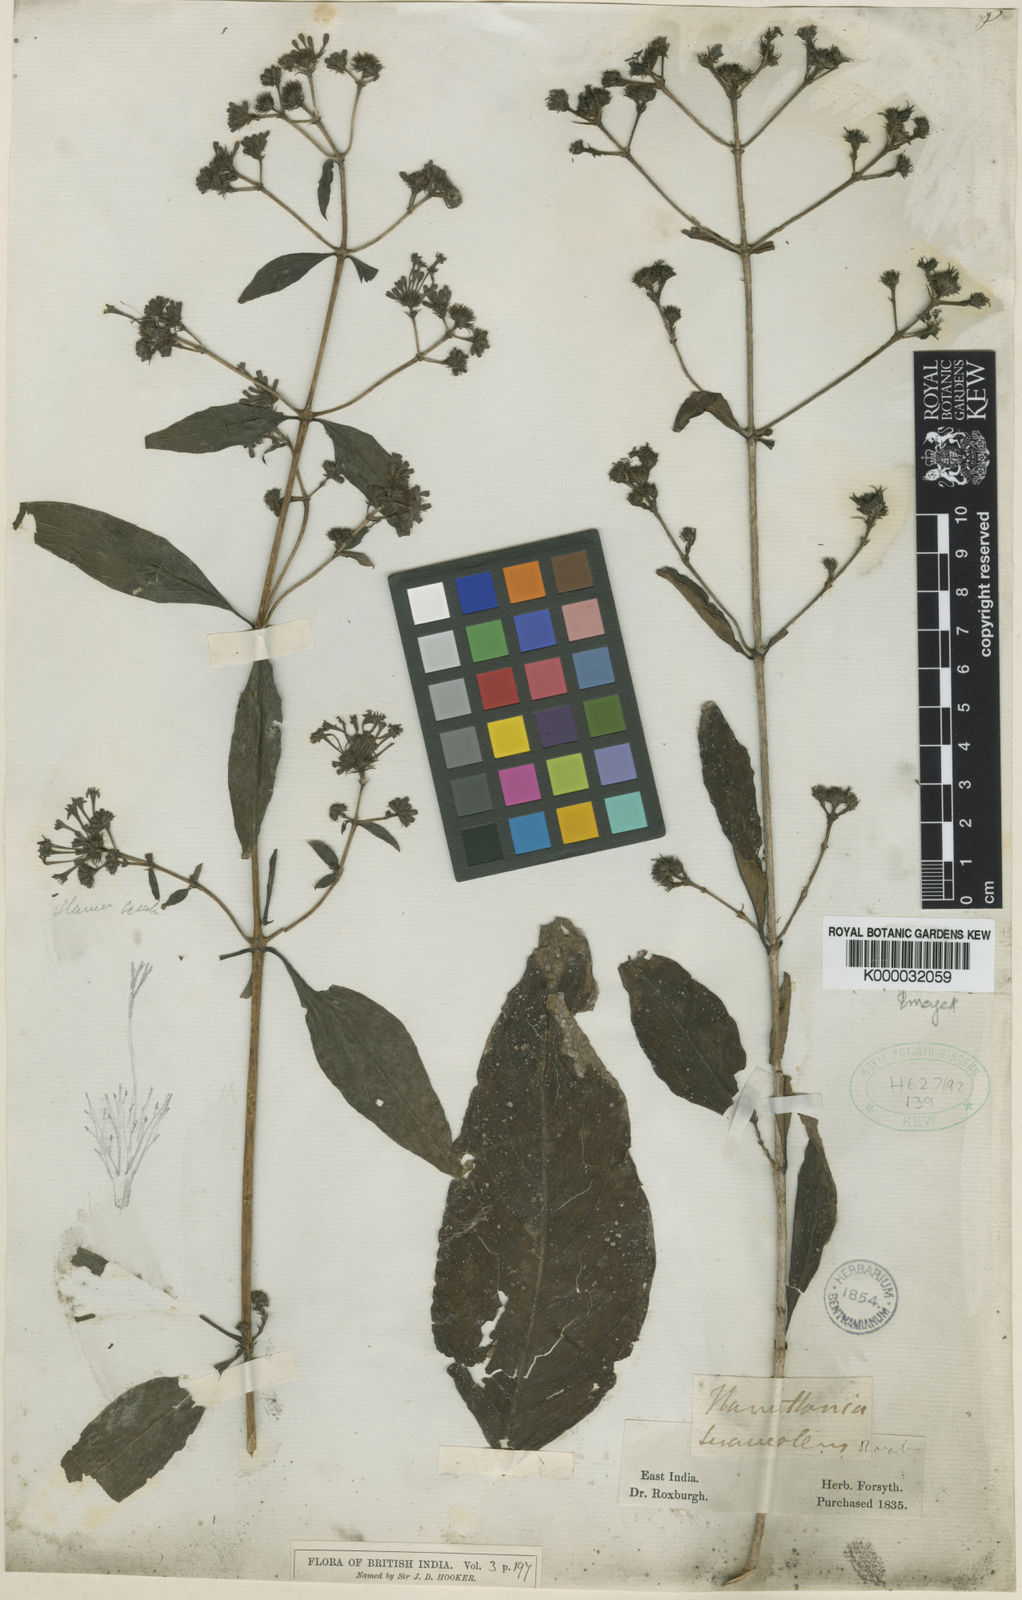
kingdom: Plantae
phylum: Tracheophyta
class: Magnoliopsida
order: Gentianales
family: Rubiaceae
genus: Spermadictyon
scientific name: Spermadictyon suaveolens
